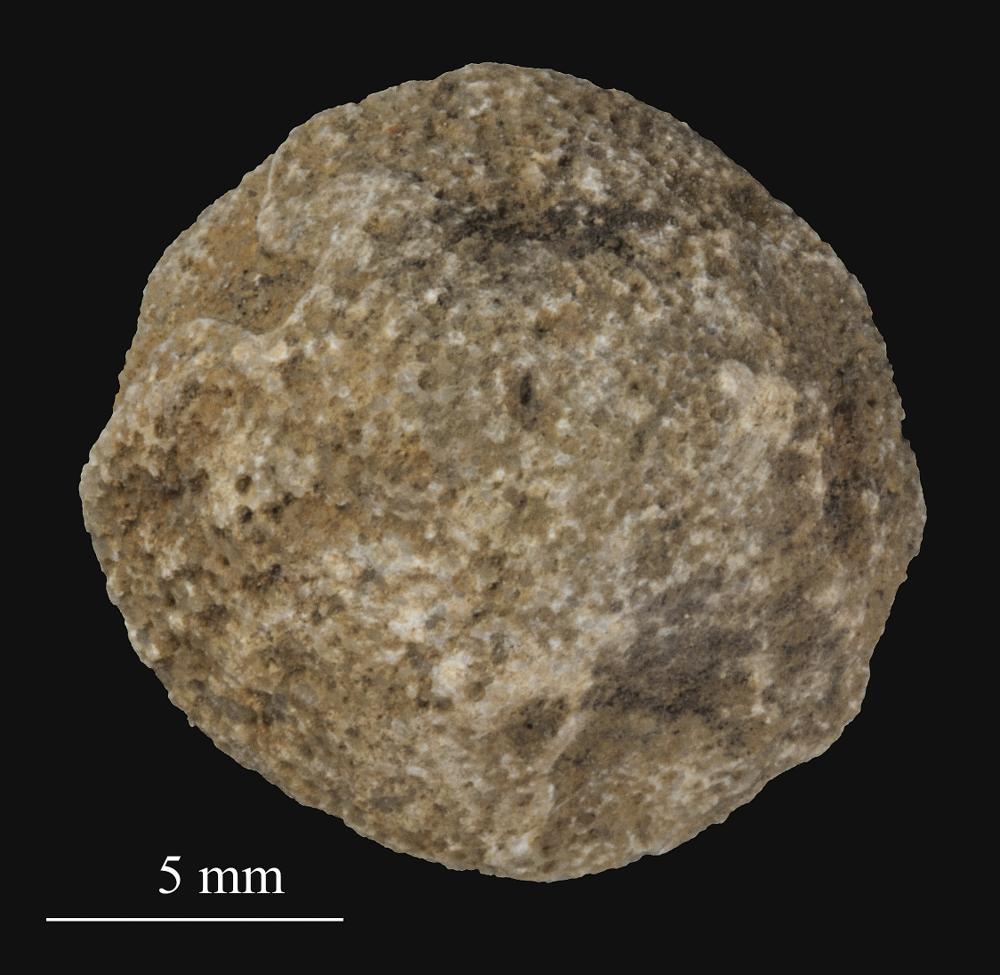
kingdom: Animalia
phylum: Bryozoa
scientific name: Bryozoa
